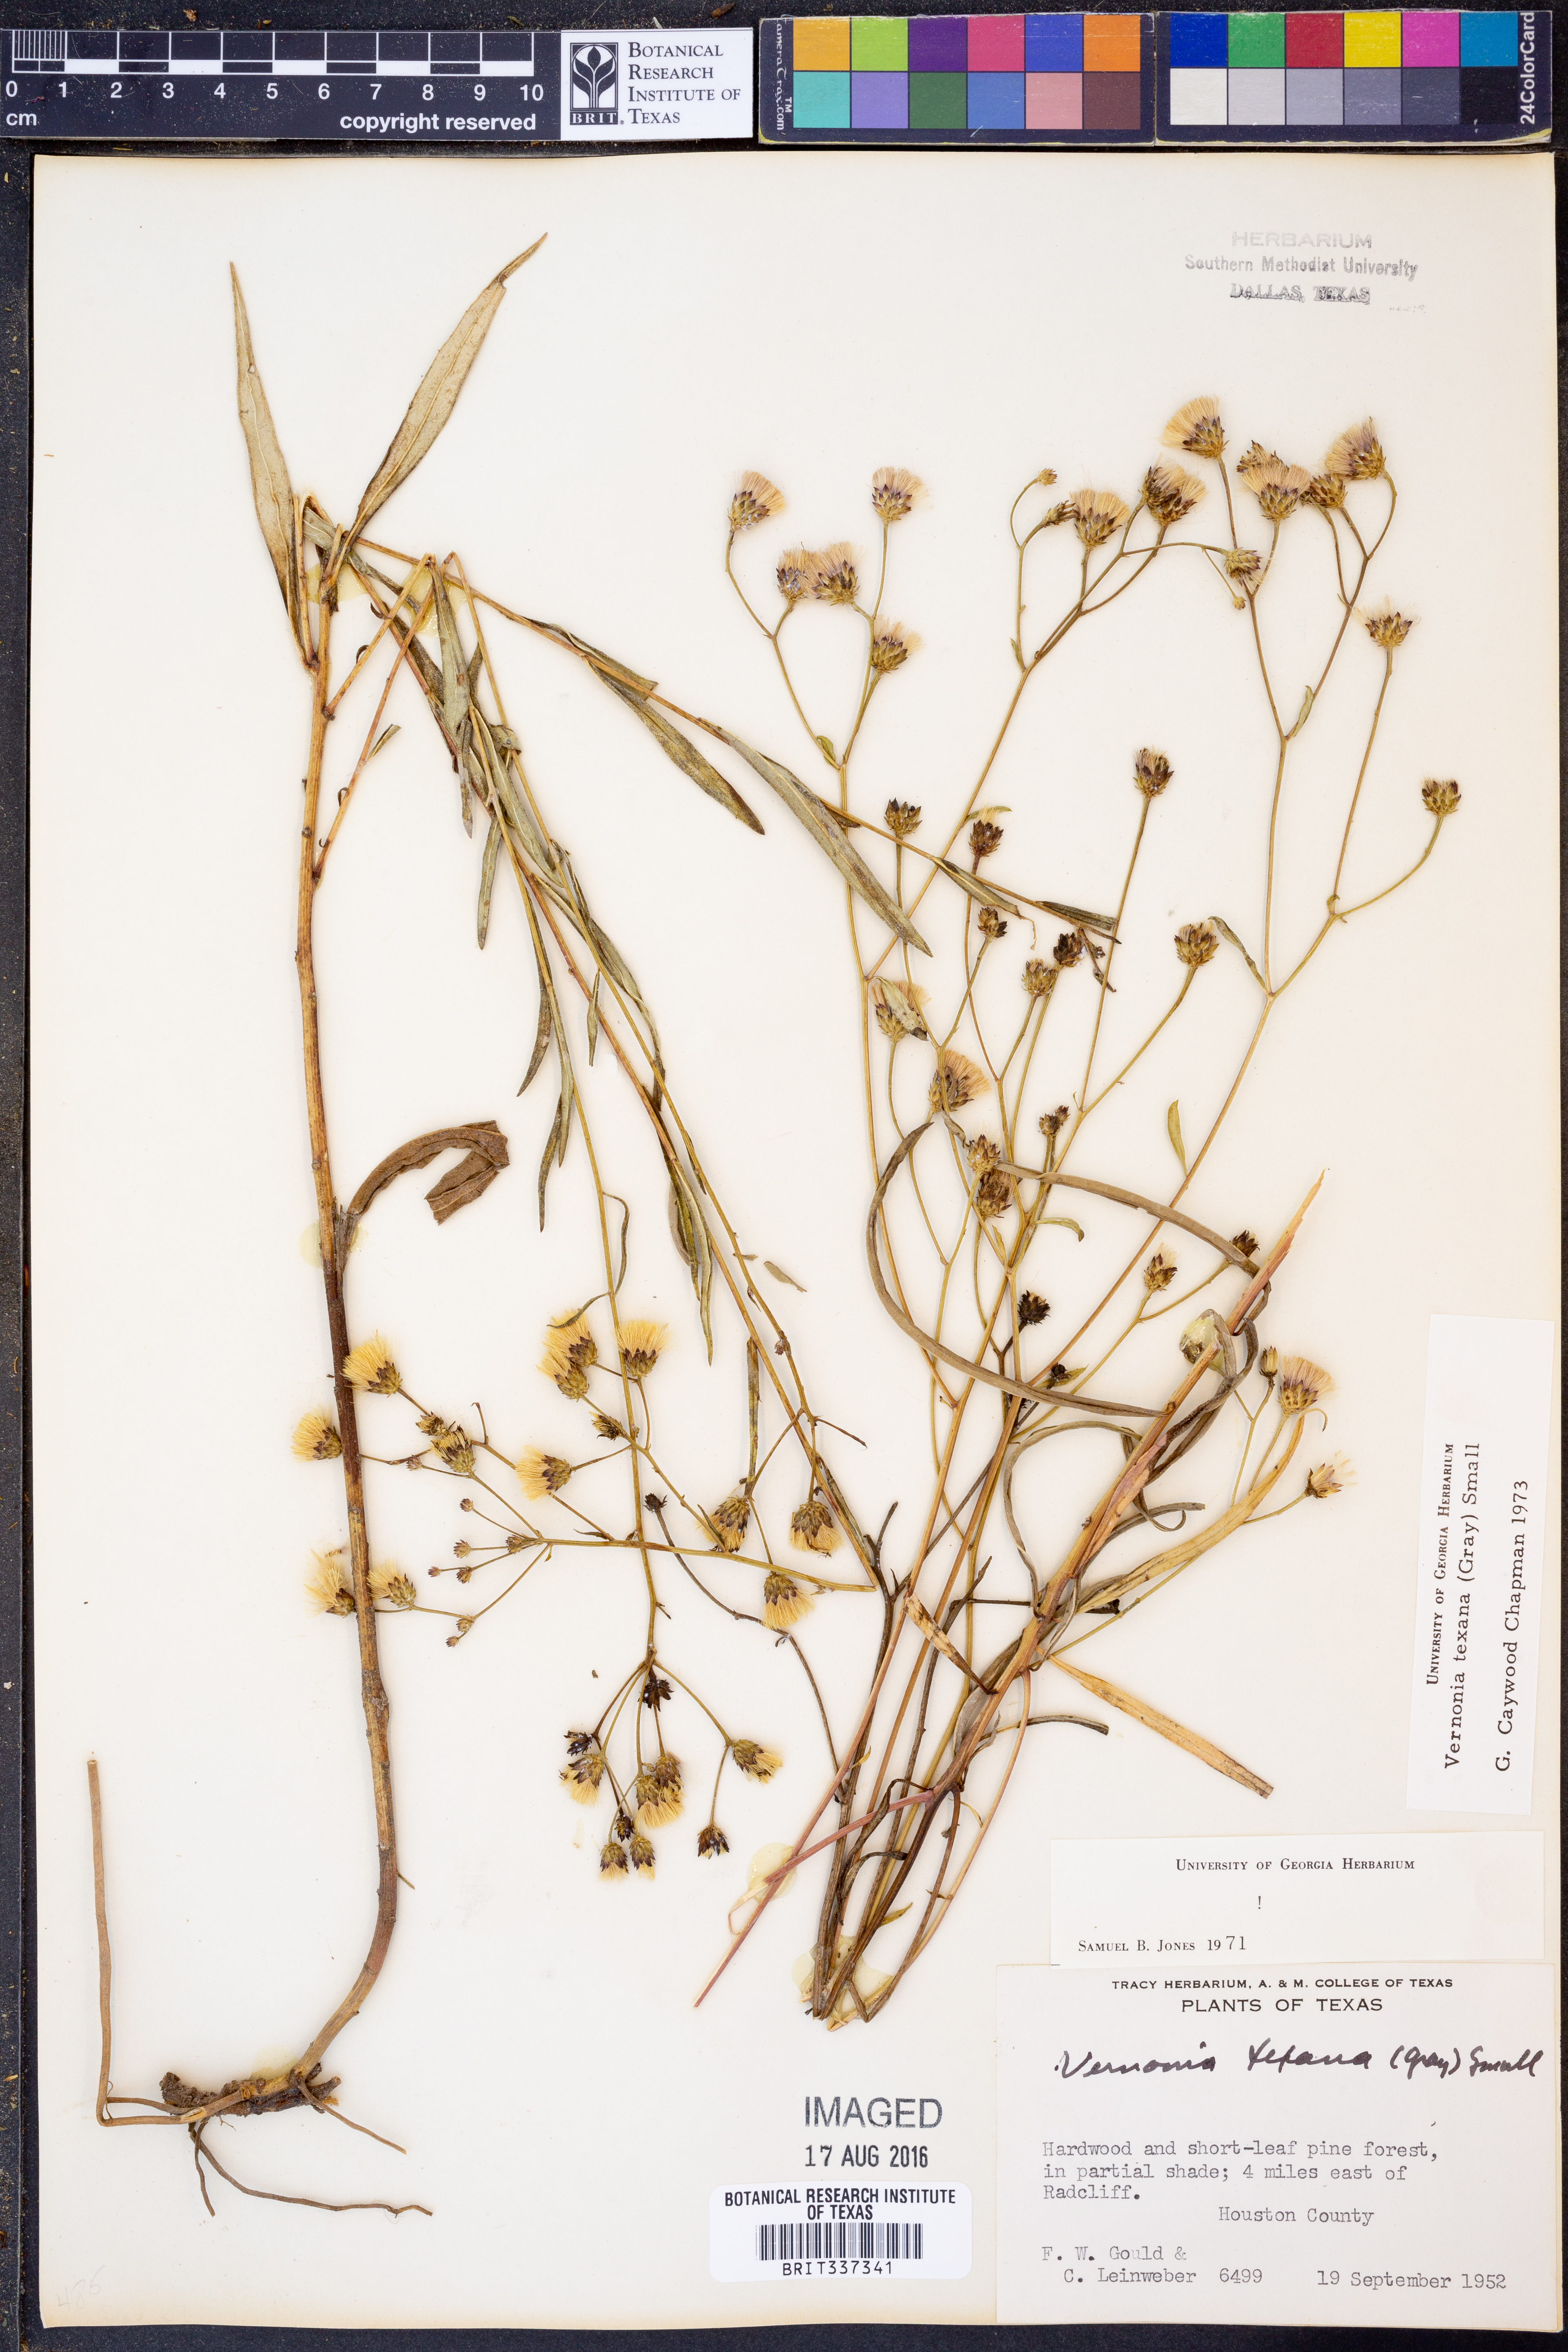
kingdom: Plantae
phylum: Tracheophyta
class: Magnoliopsida
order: Asterales
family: Asteraceae
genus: Vernonia
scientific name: Vernonia texana
